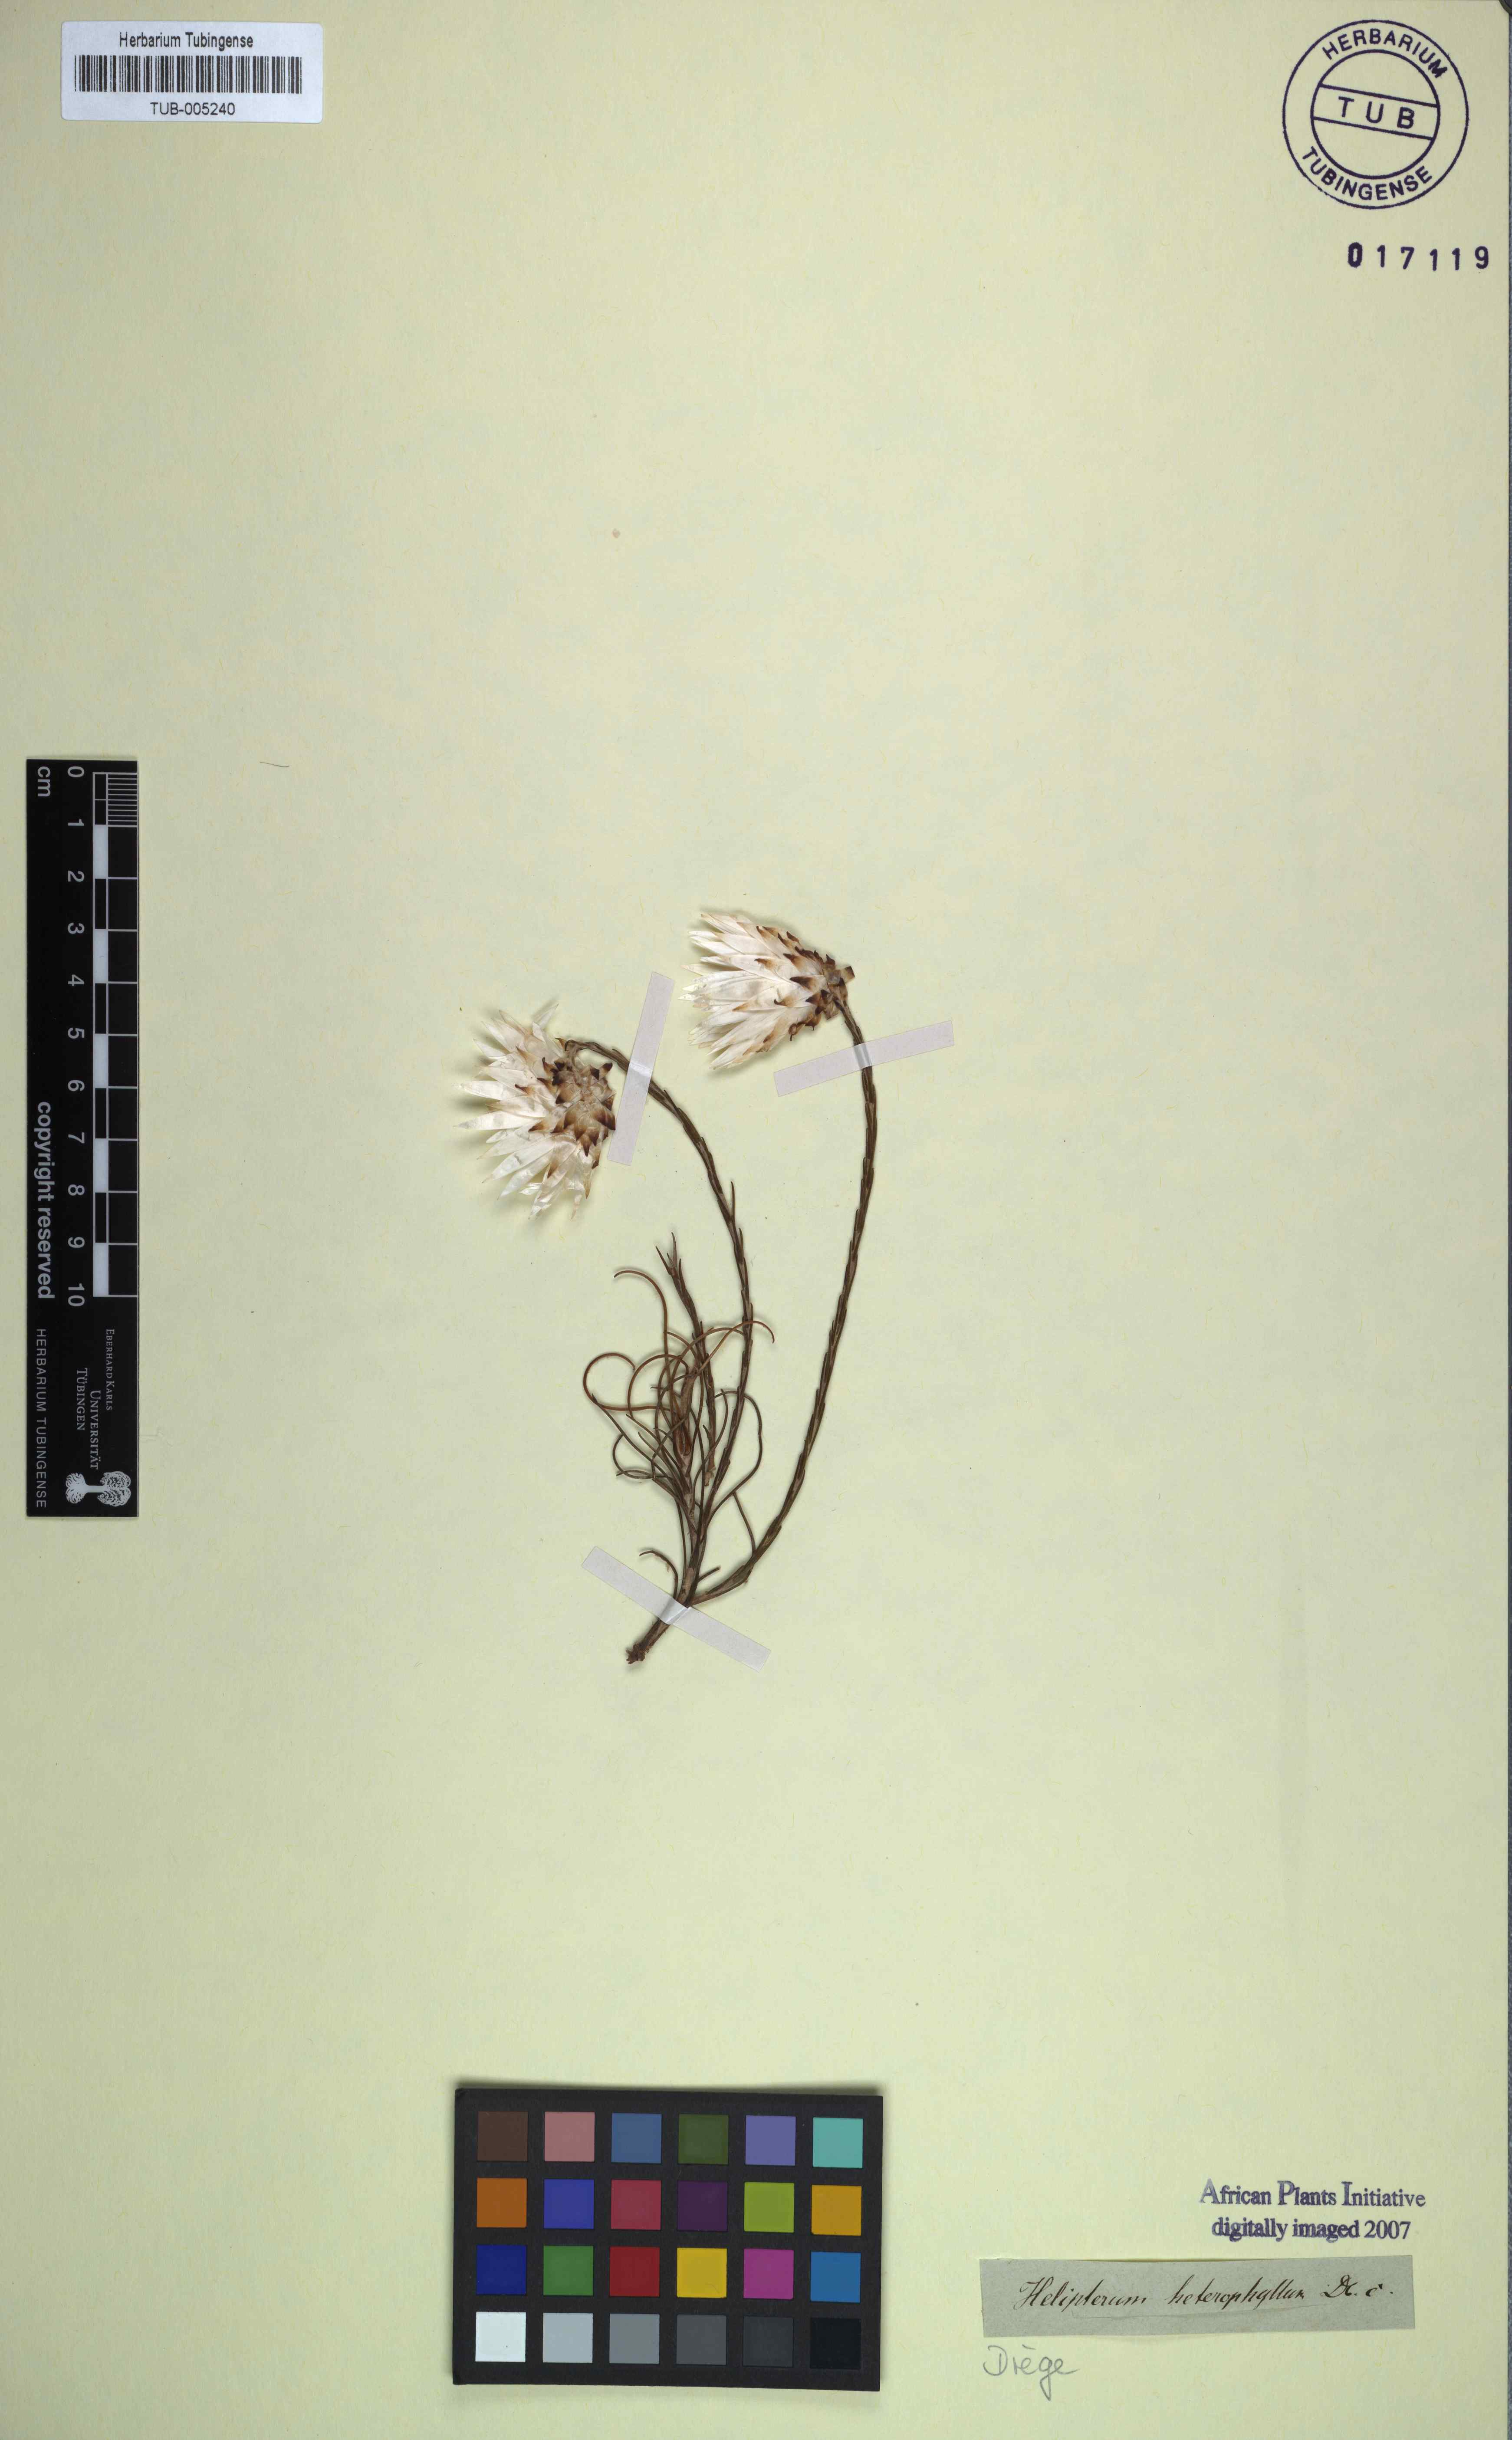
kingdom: Plantae
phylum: Tracheophyta
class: Magnoliopsida
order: Asterales
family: Asteraceae
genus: Edmondia
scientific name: Edmondia sesamoides
